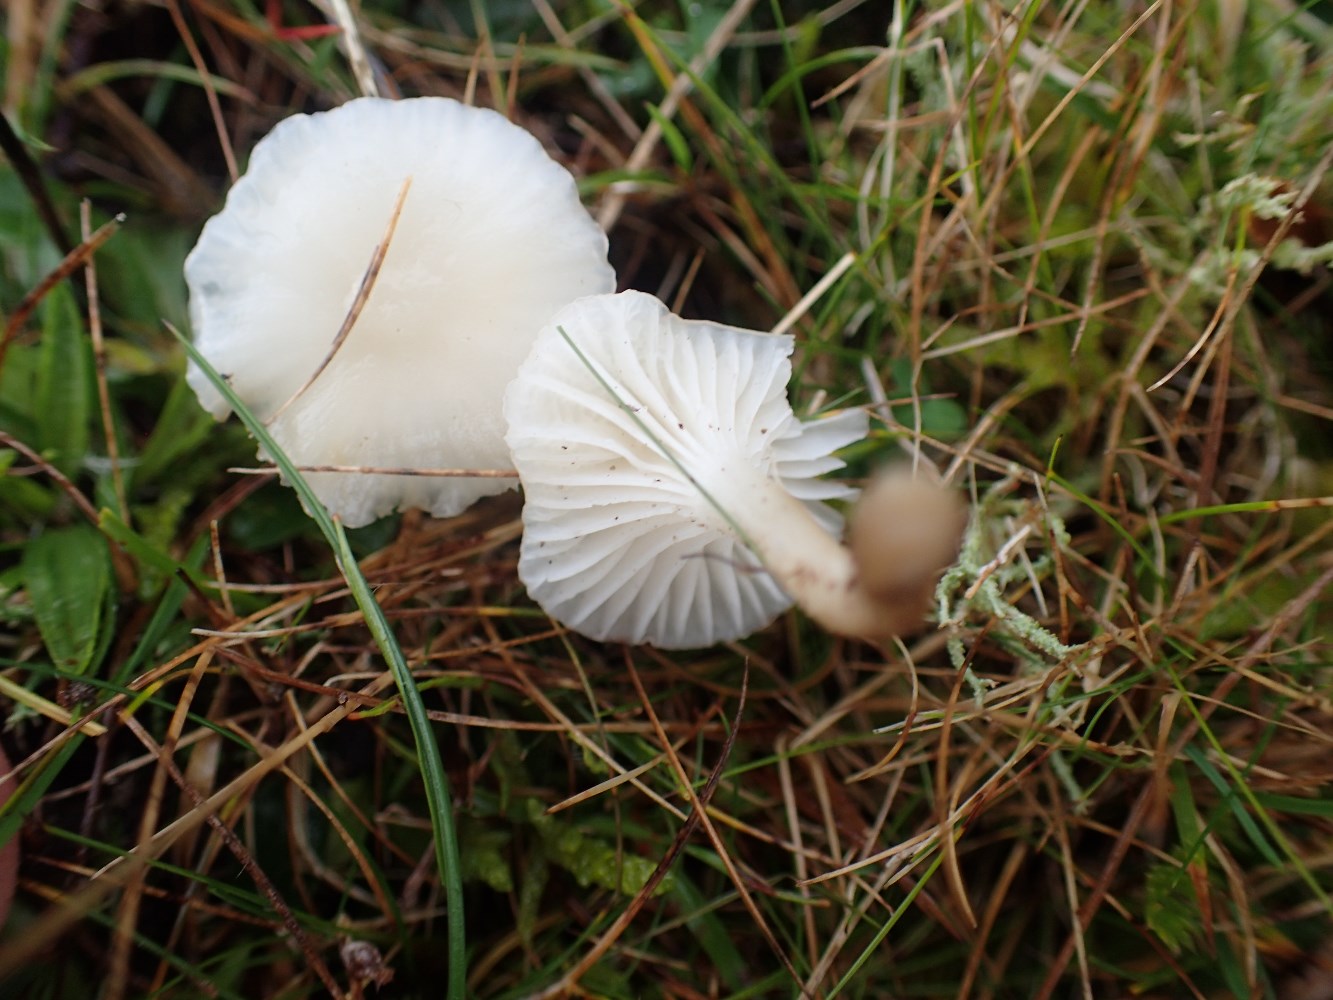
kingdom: Fungi
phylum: Basidiomycota
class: Agaricomycetes
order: Agaricales
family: Hygrophoraceae
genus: Cuphophyllus
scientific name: Cuphophyllus virgineus
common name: snehvid vokshat
